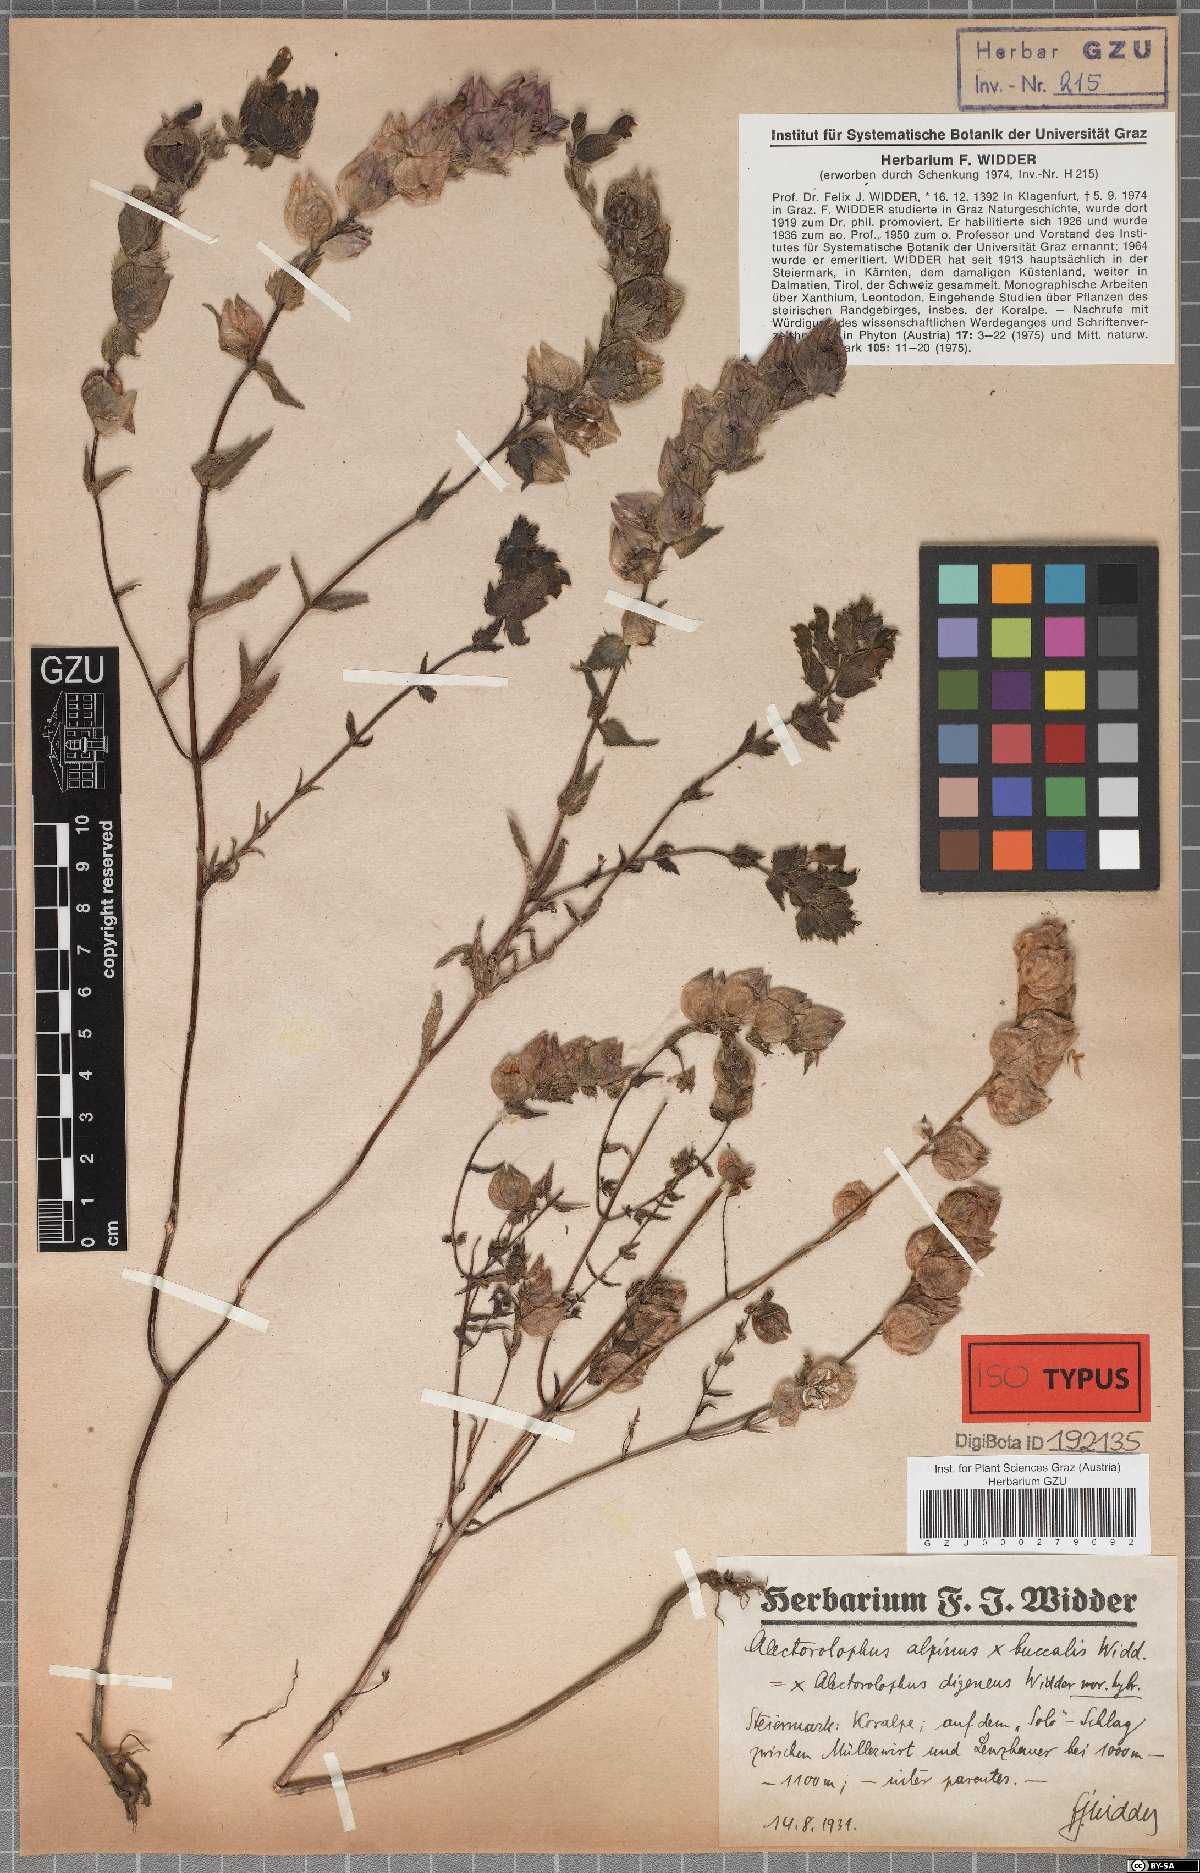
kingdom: Plantae
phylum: Tracheophyta
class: Magnoliopsida
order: Lamiales
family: Scrophulariaceae
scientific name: Scrophulariaceae
